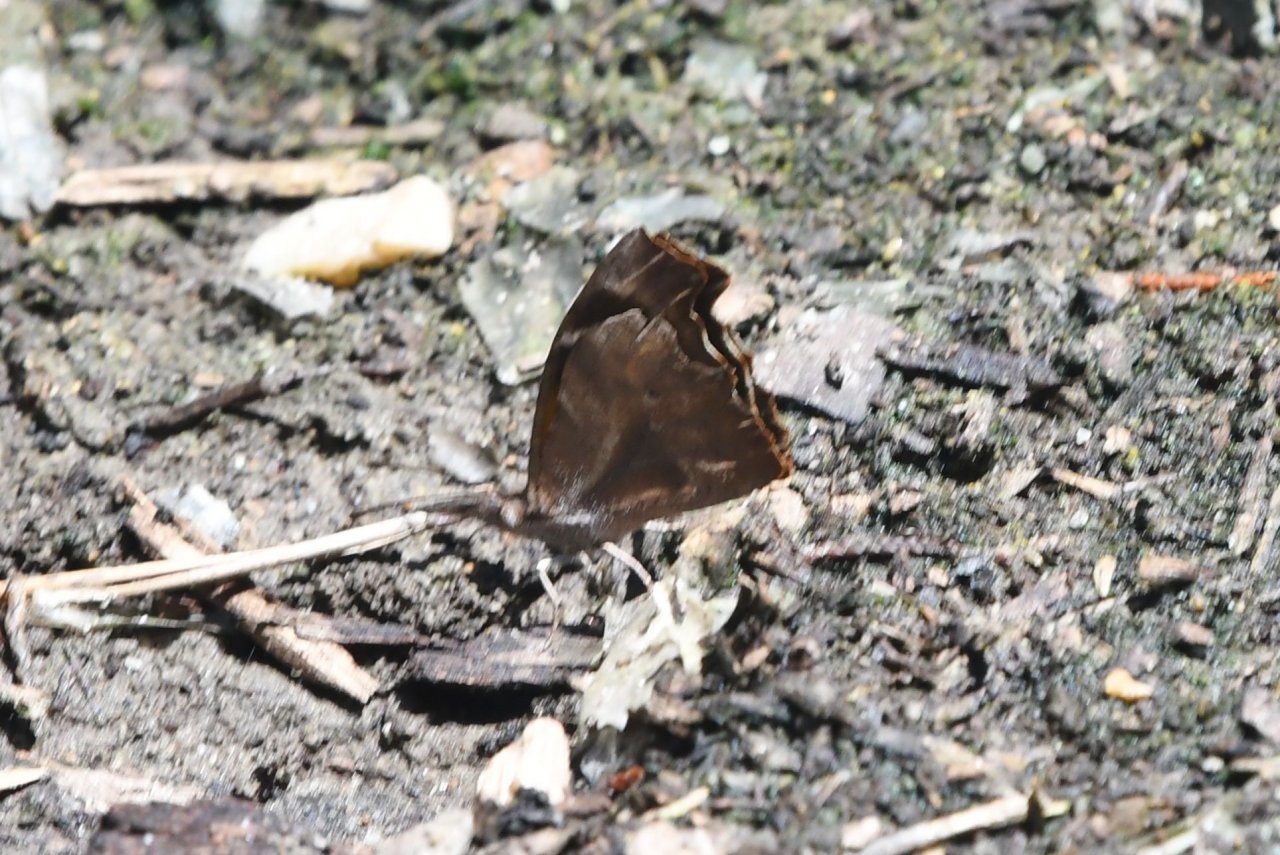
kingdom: Animalia
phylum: Arthropoda
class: Insecta
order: Lepidoptera
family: Nymphalidae
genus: Libytheana
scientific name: Libytheana carinenta
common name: American Snout
